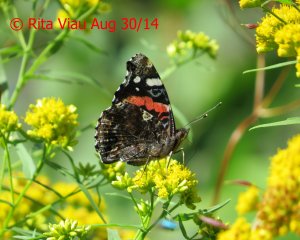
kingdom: Animalia
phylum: Arthropoda
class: Insecta
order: Lepidoptera
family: Nymphalidae
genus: Vanessa
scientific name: Vanessa atalanta
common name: Red Admiral
